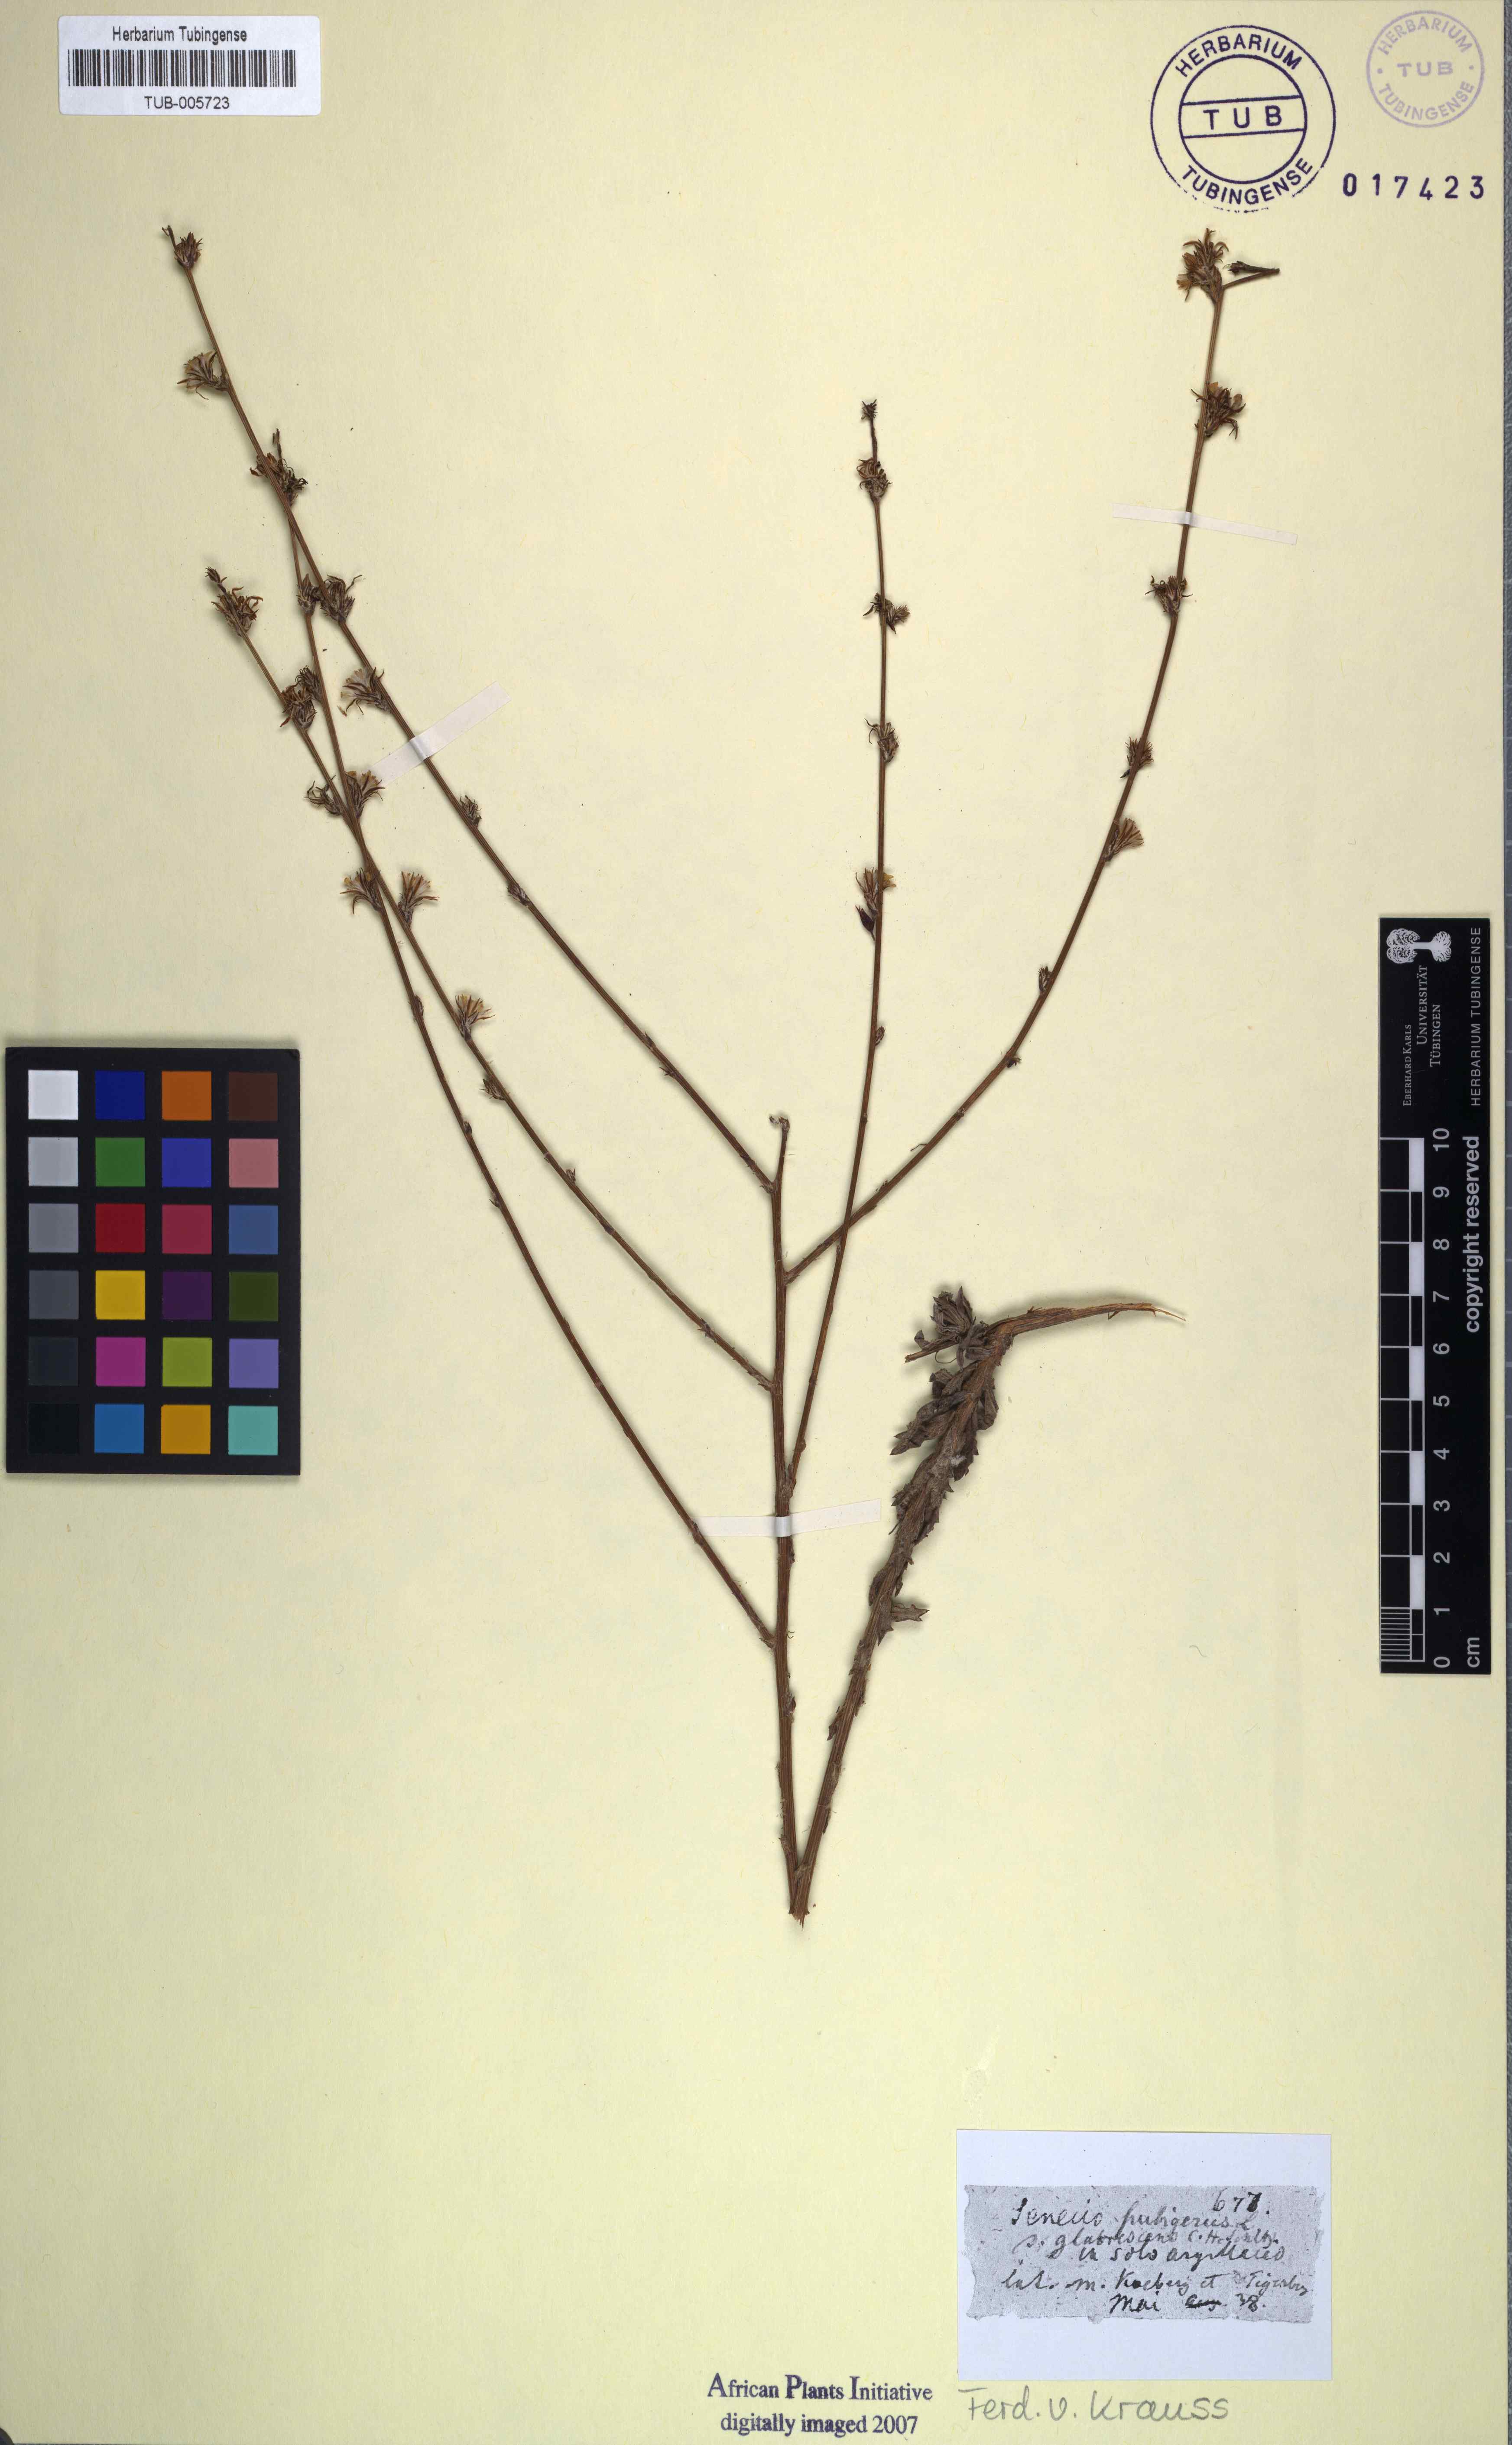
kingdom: Plantae
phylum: Tracheophyta
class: Magnoliopsida
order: Asterales
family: Asteraceae
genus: Senecio
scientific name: Senecio pubigerus
